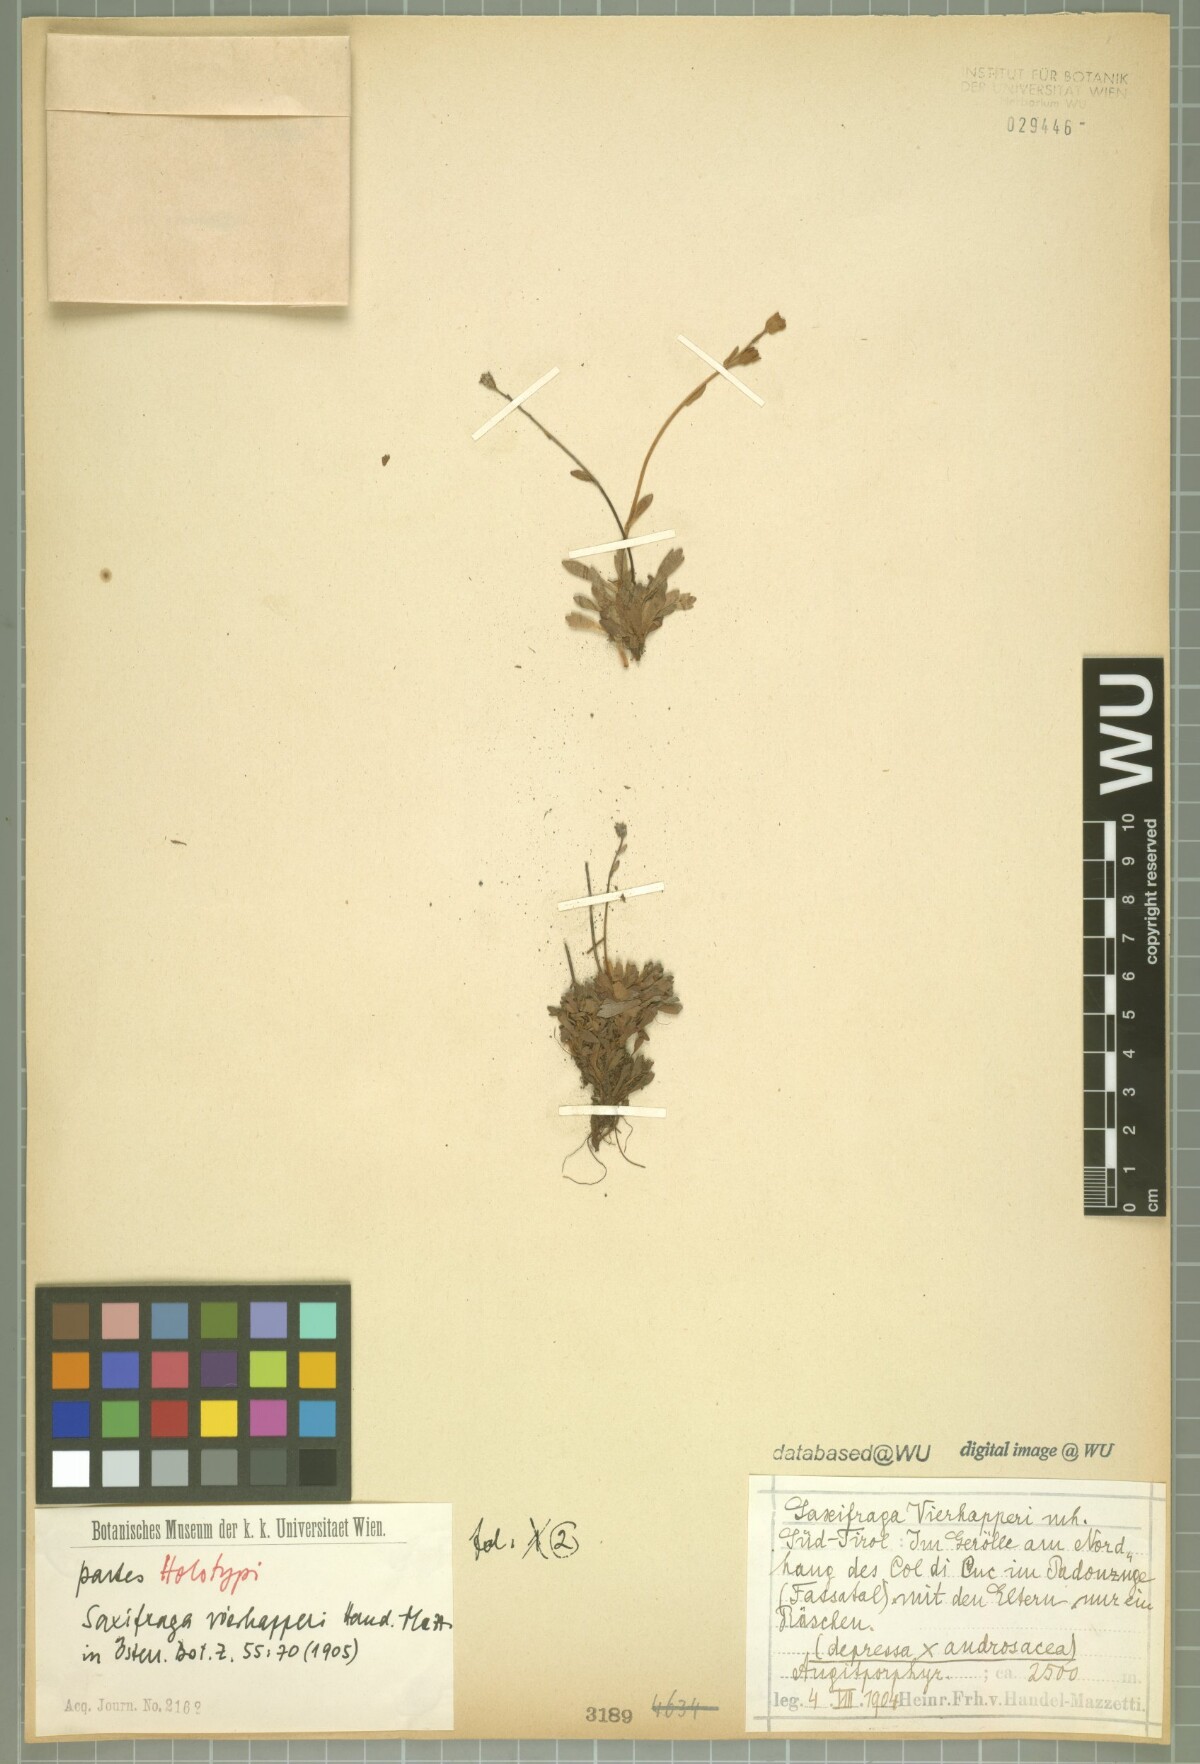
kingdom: Plantae
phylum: Tracheophyta
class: Magnoliopsida
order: Saxifragales
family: Saxifragaceae
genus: Saxifraga
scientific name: Saxifraga vierhapperi
